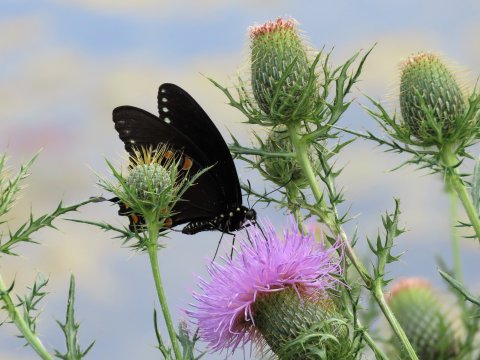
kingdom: Animalia
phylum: Arthropoda
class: Insecta
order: Lepidoptera
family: Papilionidae
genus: Pterourus
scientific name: Pterourus troilus
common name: Spicebush Swallowtail
